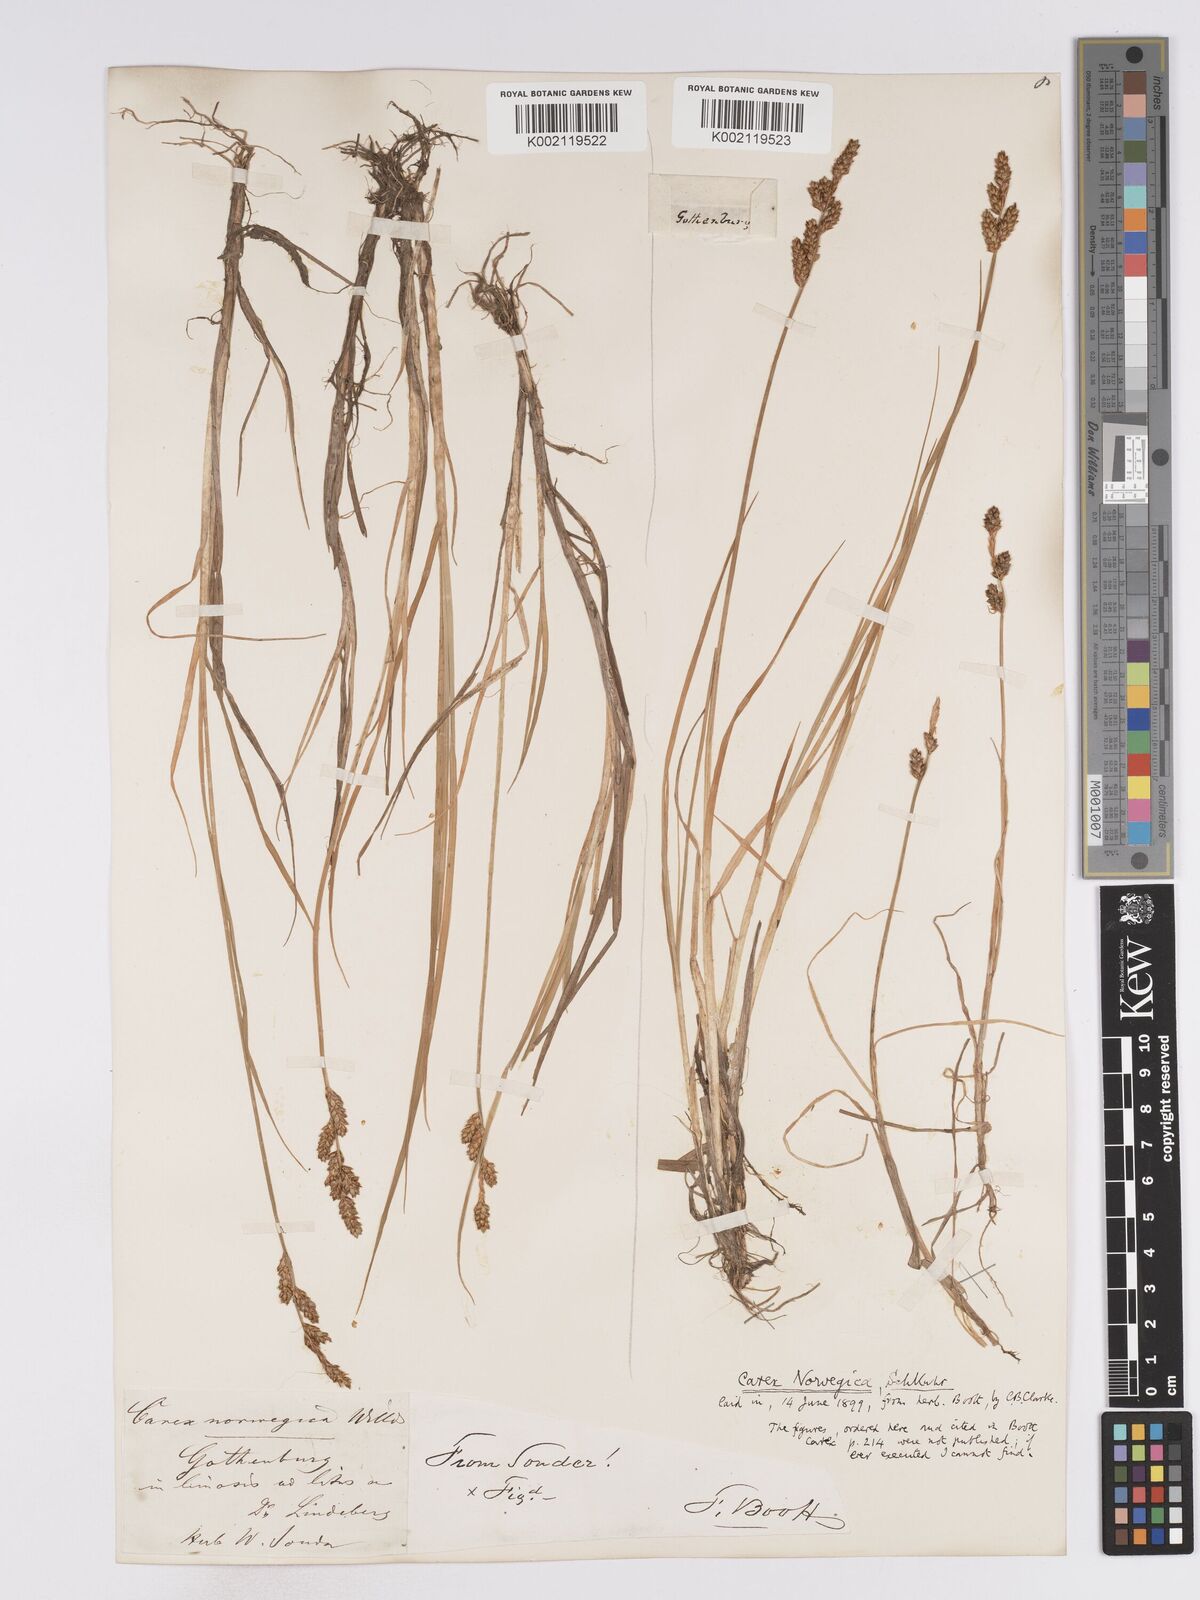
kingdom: Plantae
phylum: Tracheophyta
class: Liliopsida
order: Poales
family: Cyperaceae
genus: Carex
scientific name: Carex mackenziei
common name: Mackenzie's sedge
